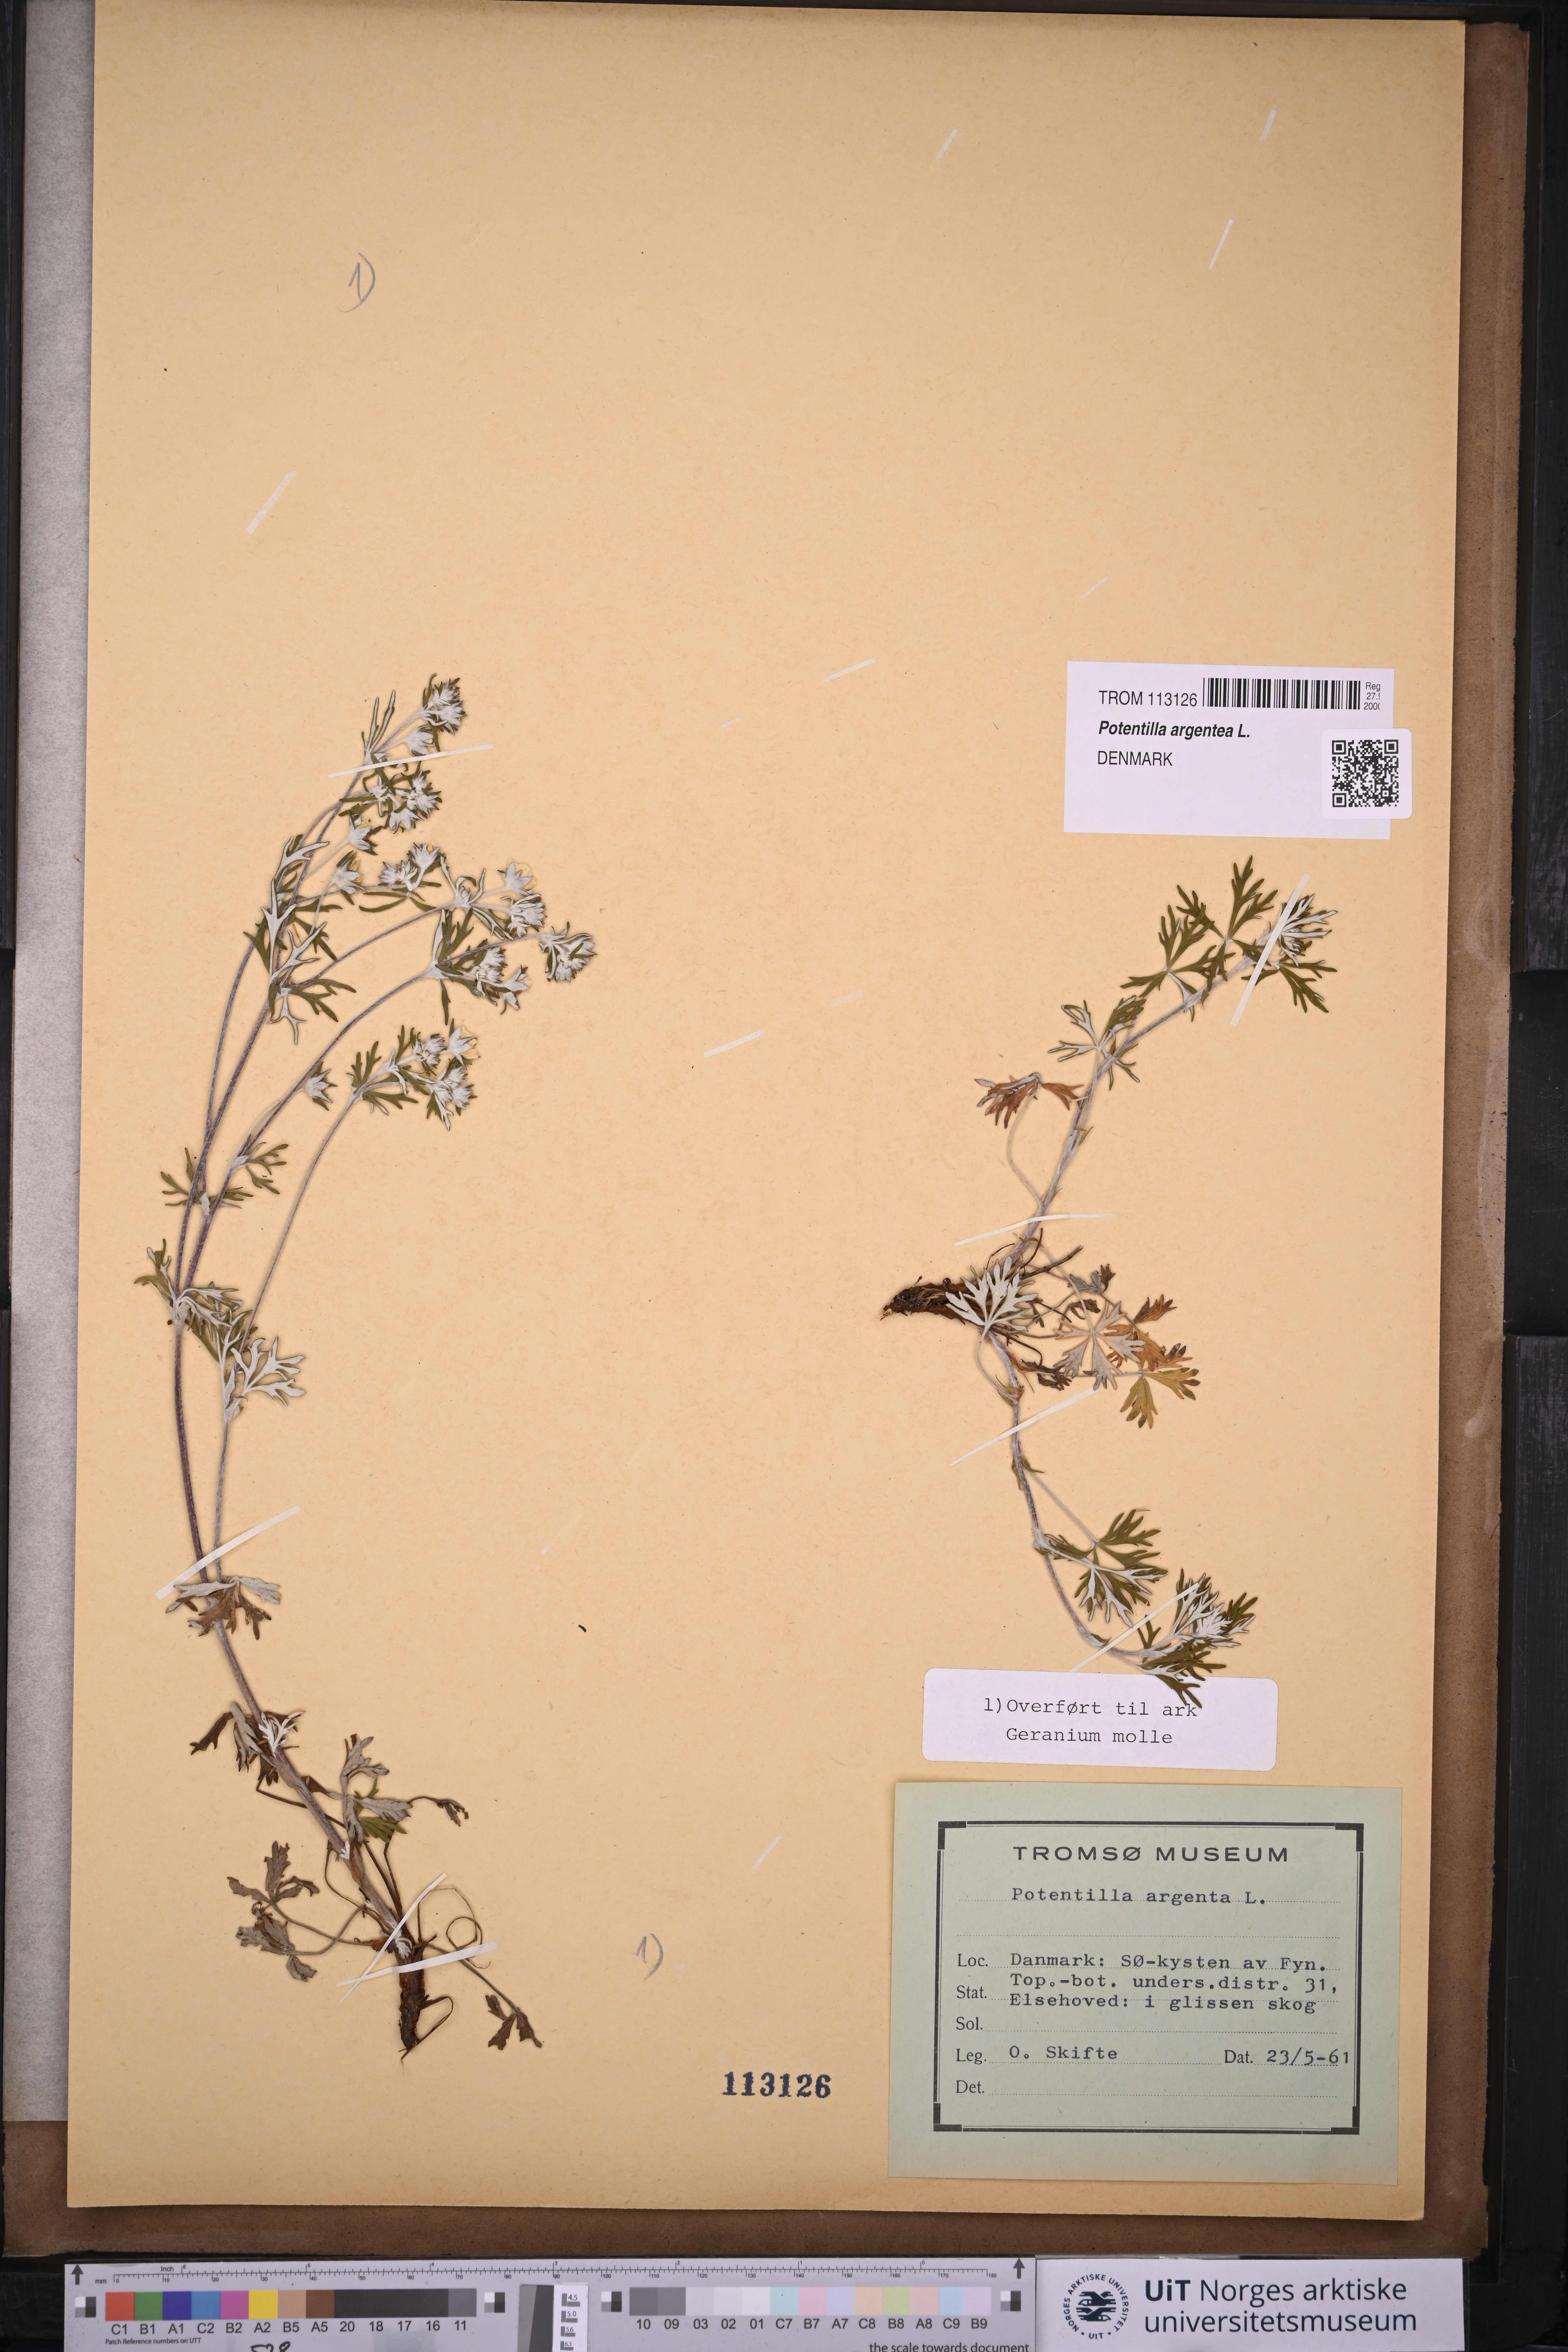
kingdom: Plantae
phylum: Tracheophyta
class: Magnoliopsida
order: Rosales
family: Rosaceae
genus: Potentilla
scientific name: Potentilla argentea
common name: Hoary cinquefoil
